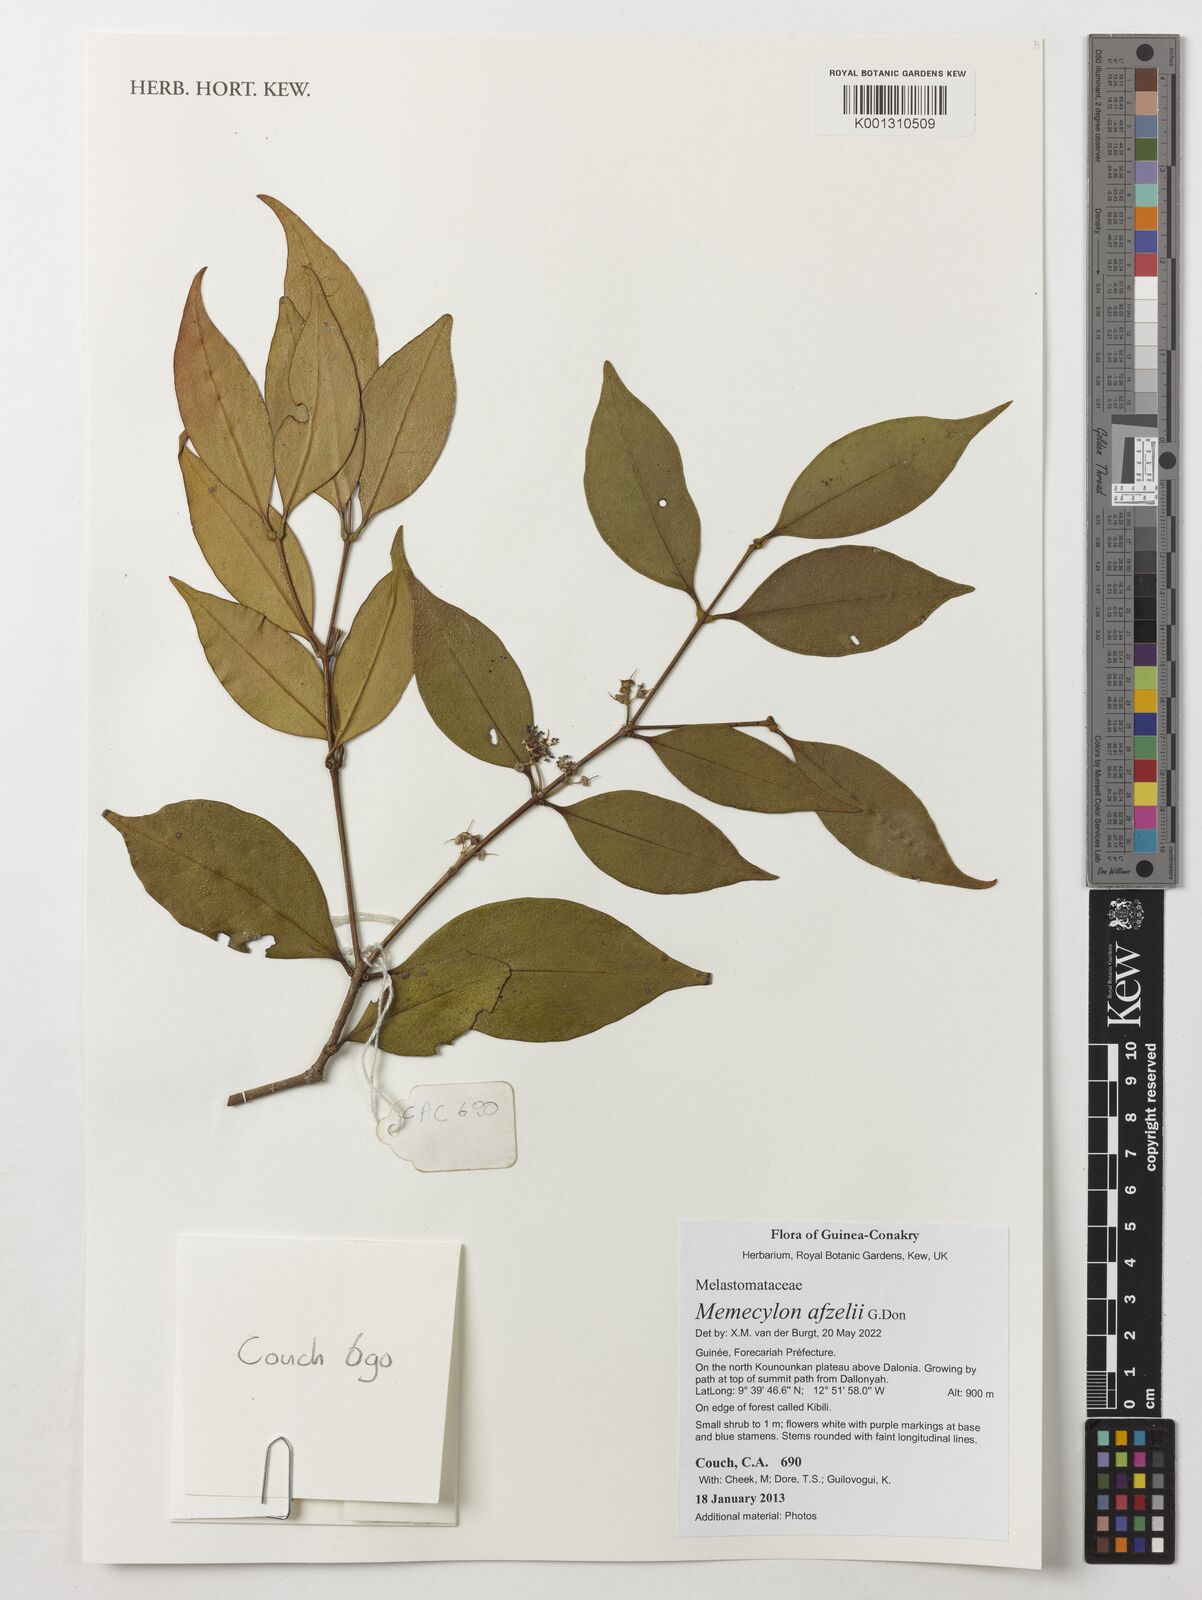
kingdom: Plantae
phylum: Tracheophyta
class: Magnoliopsida
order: Myrtales
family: Melastomataceae
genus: Memecylon
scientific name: Memecylon afzelii
